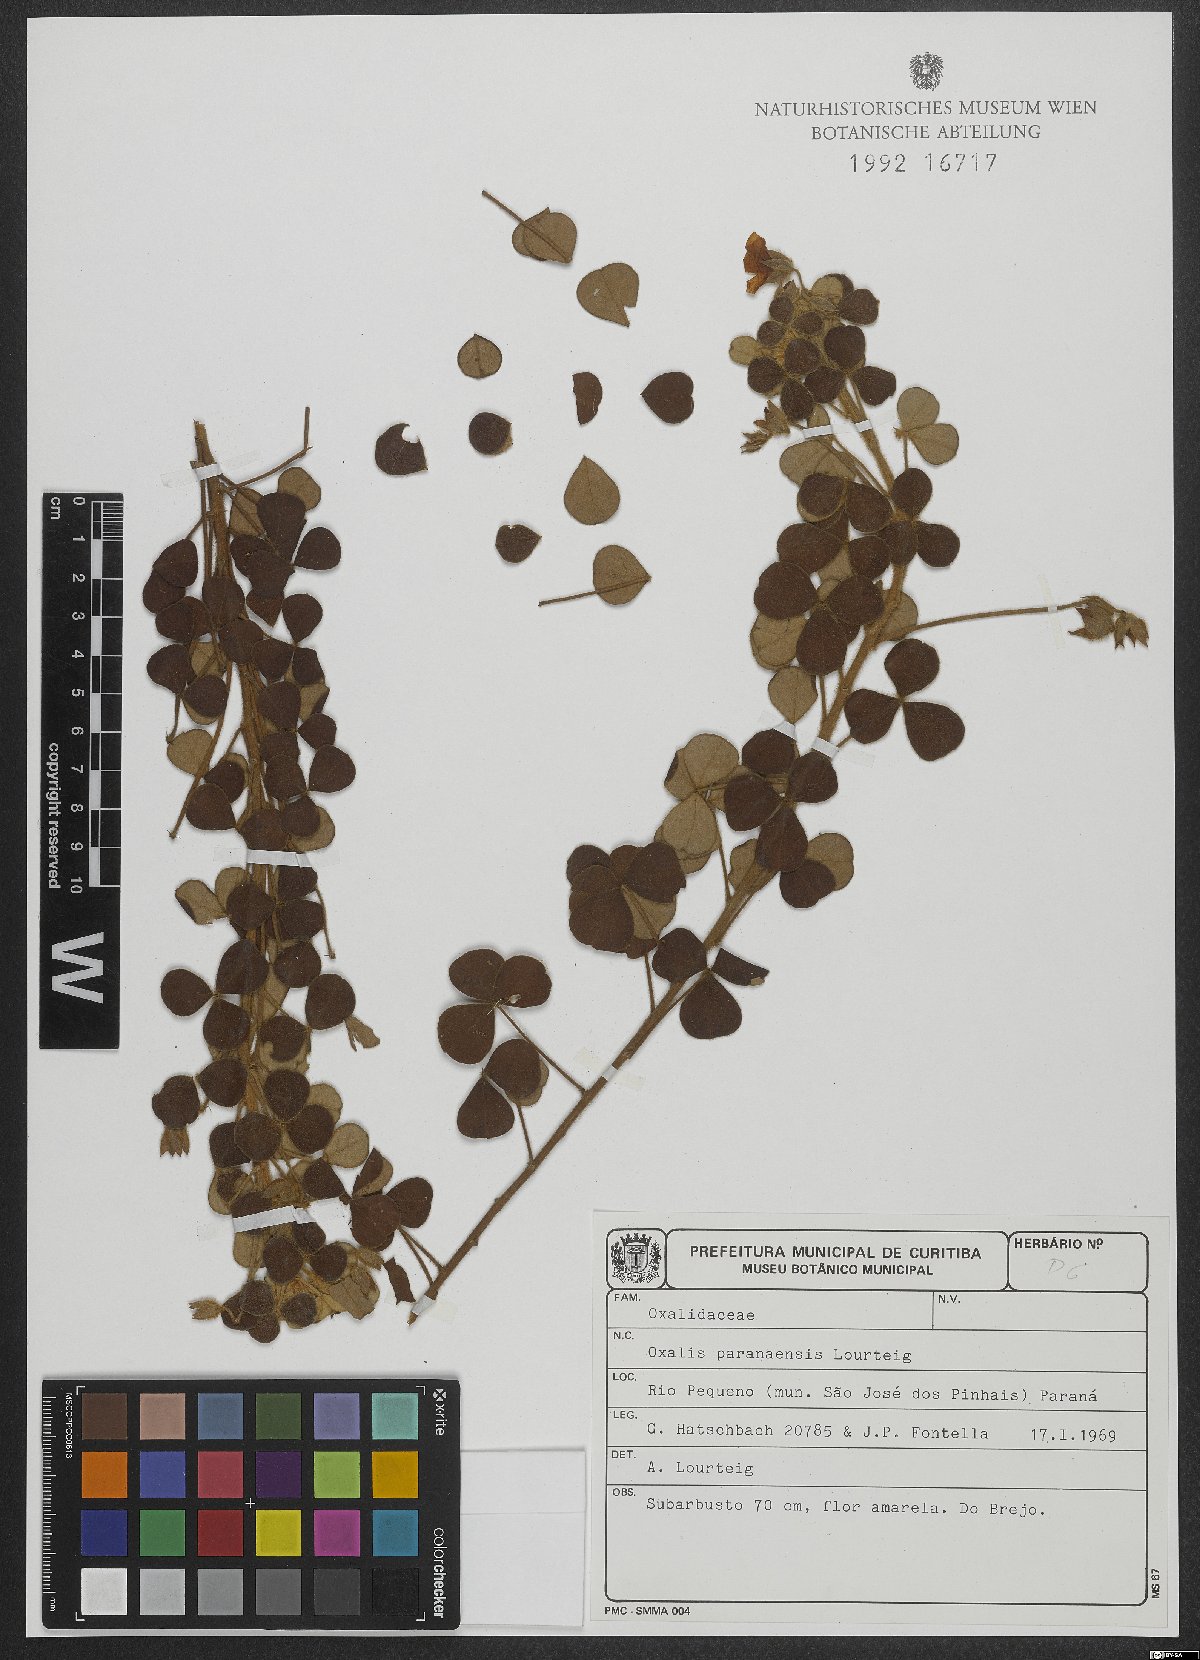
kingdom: Plantae
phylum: Tracheophyta
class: Magnoliopsida
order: Oxalidales
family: Oxalidaceae
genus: Oxalis
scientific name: Oxalis paranaensis
